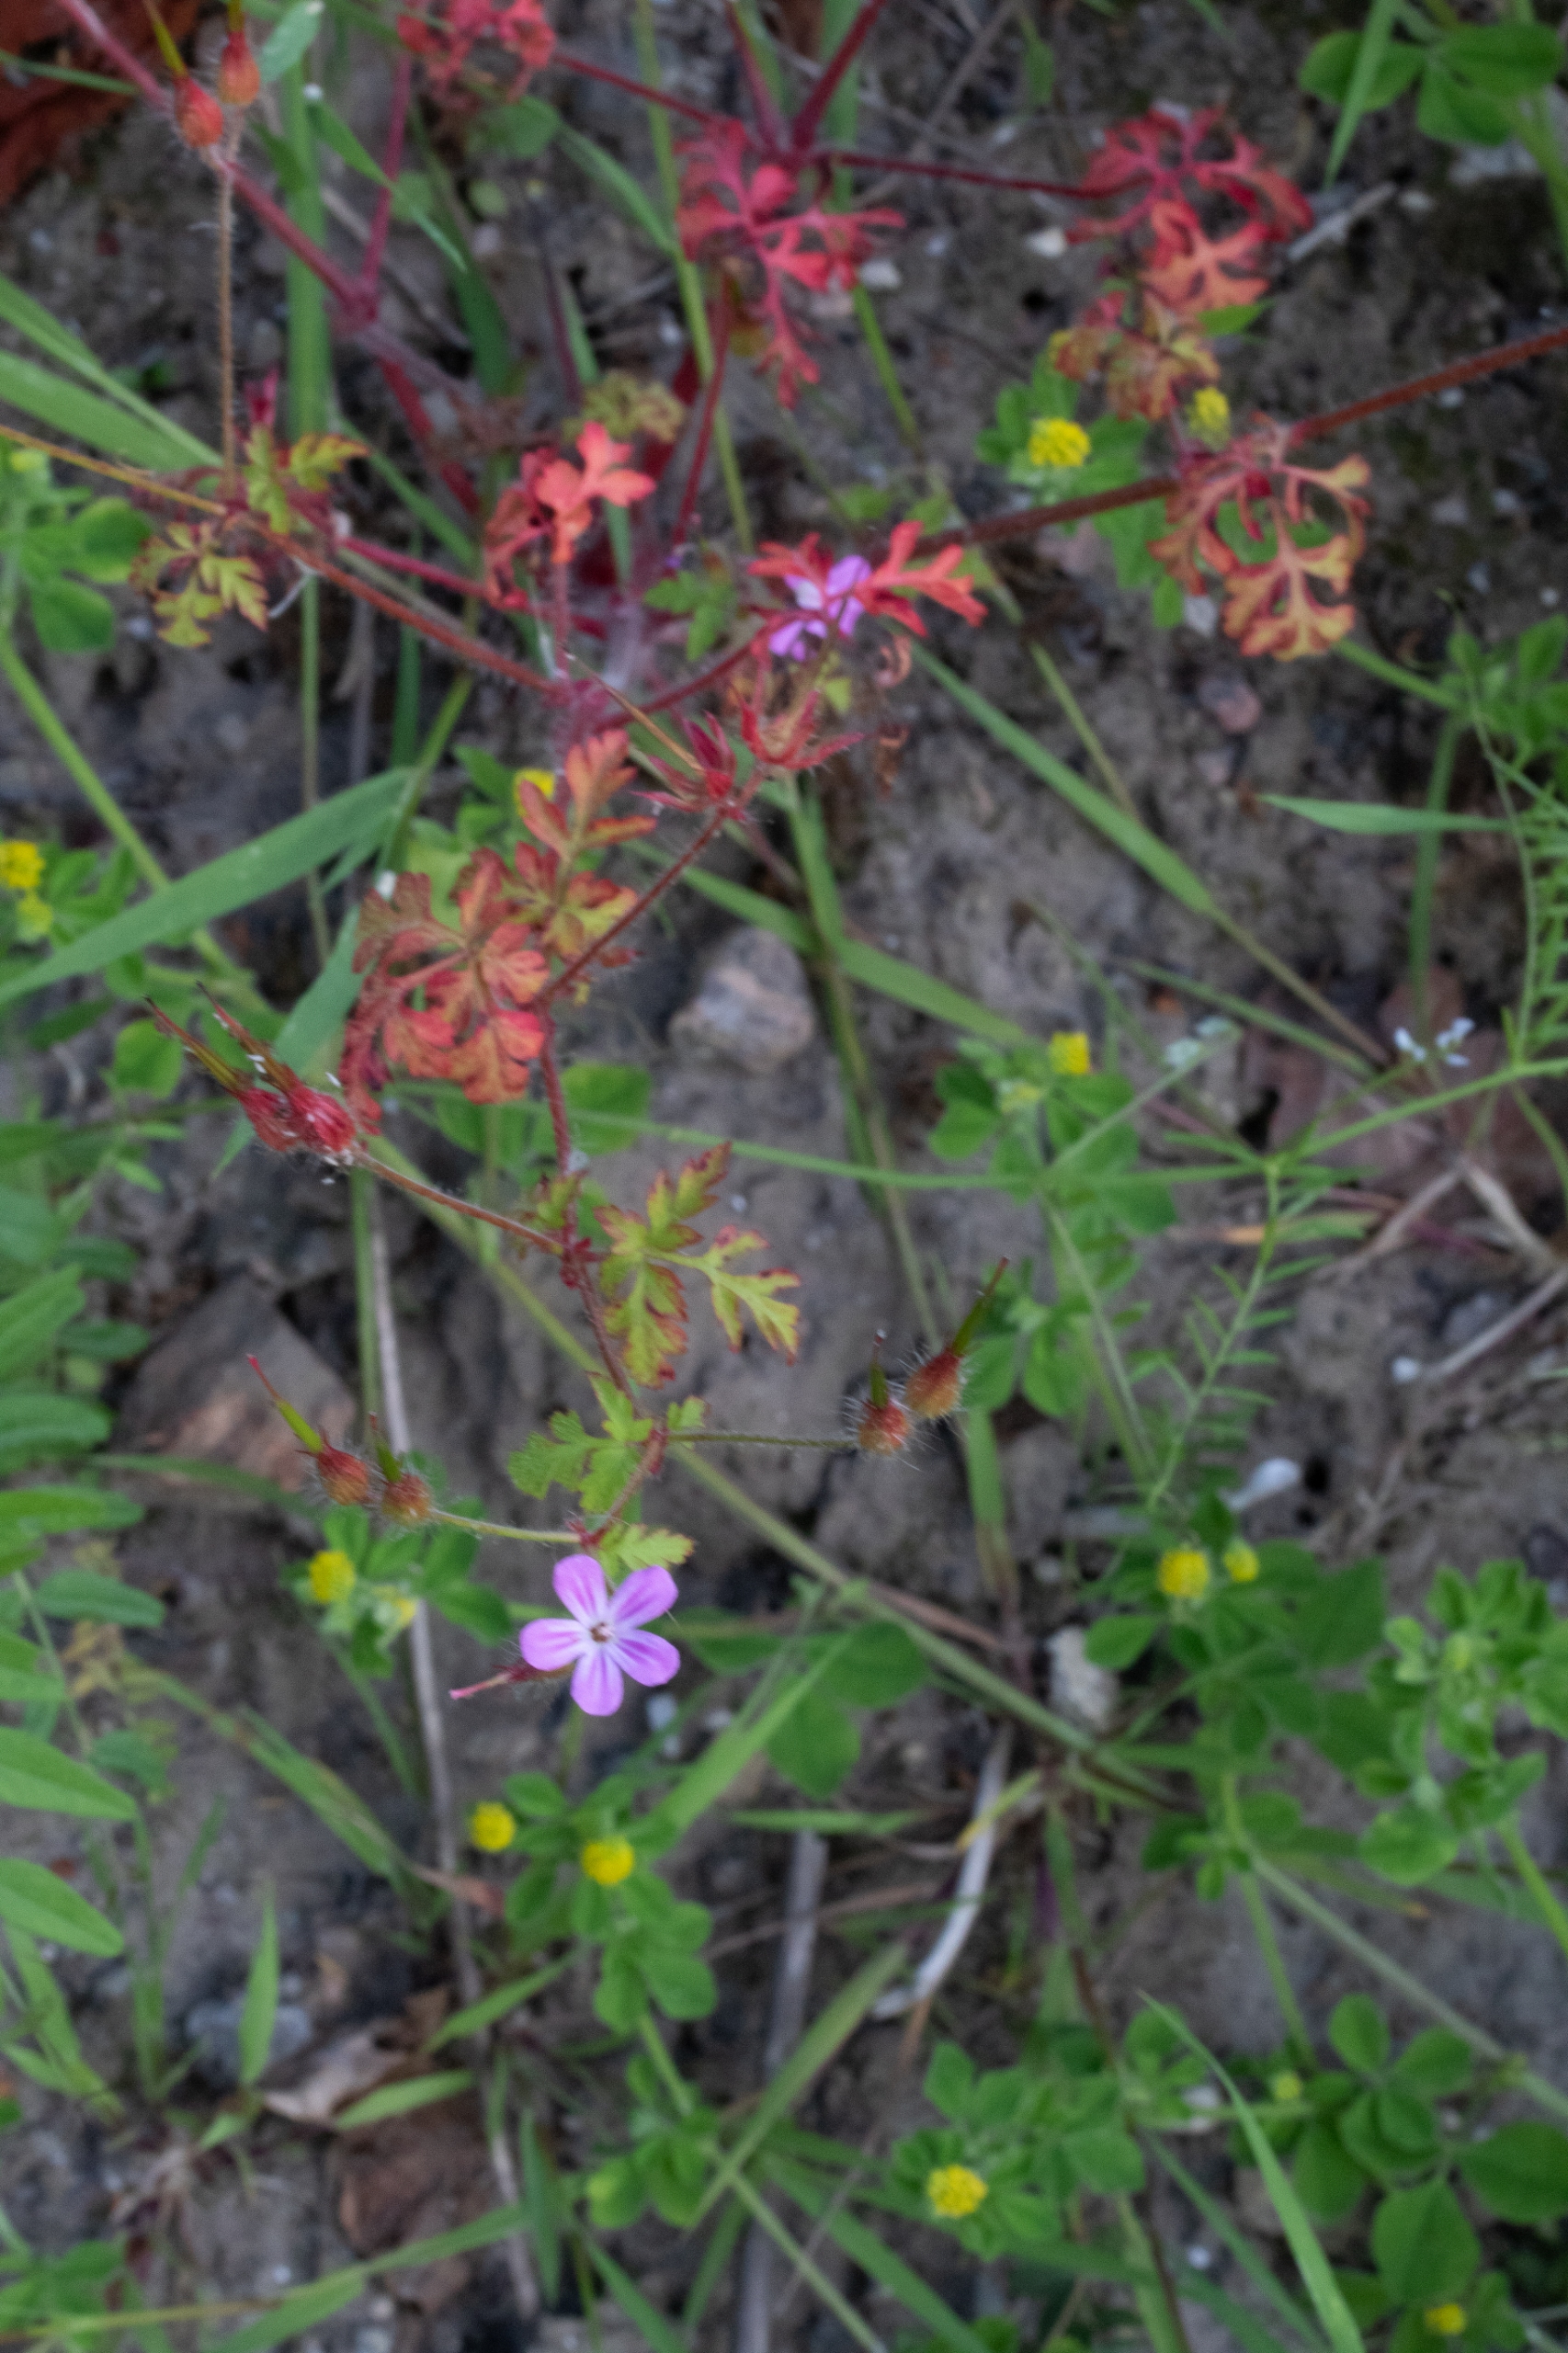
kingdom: Plantae
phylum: Tracheophyta
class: Magnoliopsida
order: Geraniales
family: Geraniaceae
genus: Geranium
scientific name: Geranium robertianum
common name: Stinkende storkenæb
